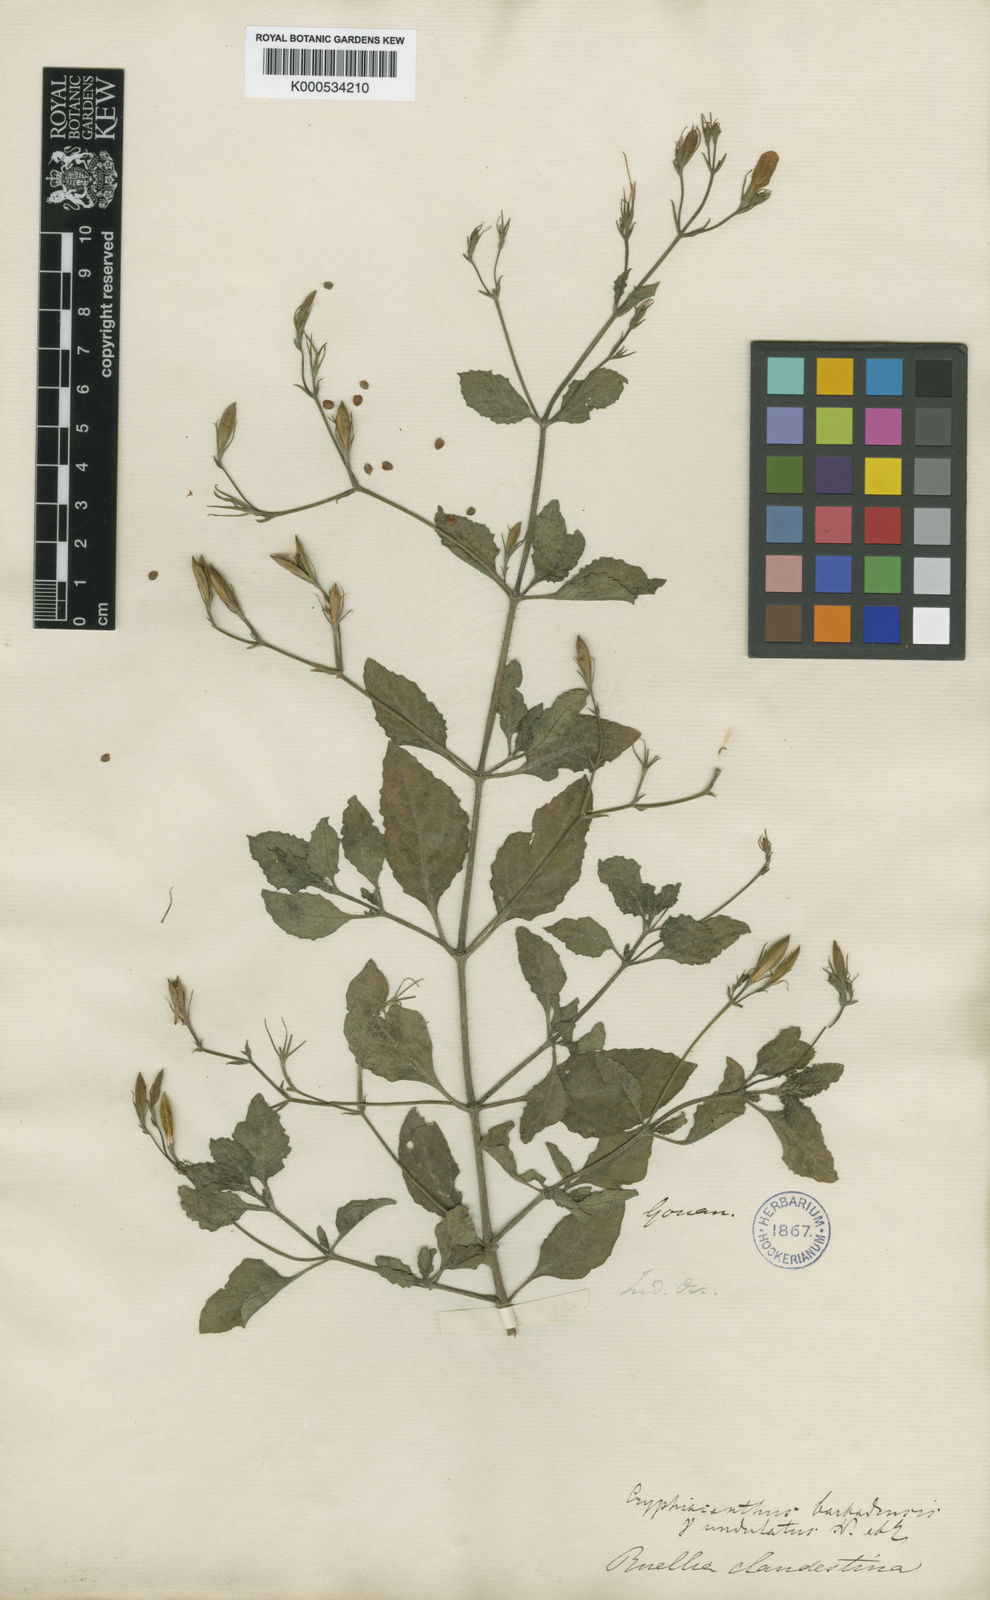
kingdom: Plantae
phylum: Tracheophyta
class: Magnoliopsida
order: Lamiales
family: Acanthaceae
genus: Ruellia
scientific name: Ruellia tuberosa
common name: Devil's bit
